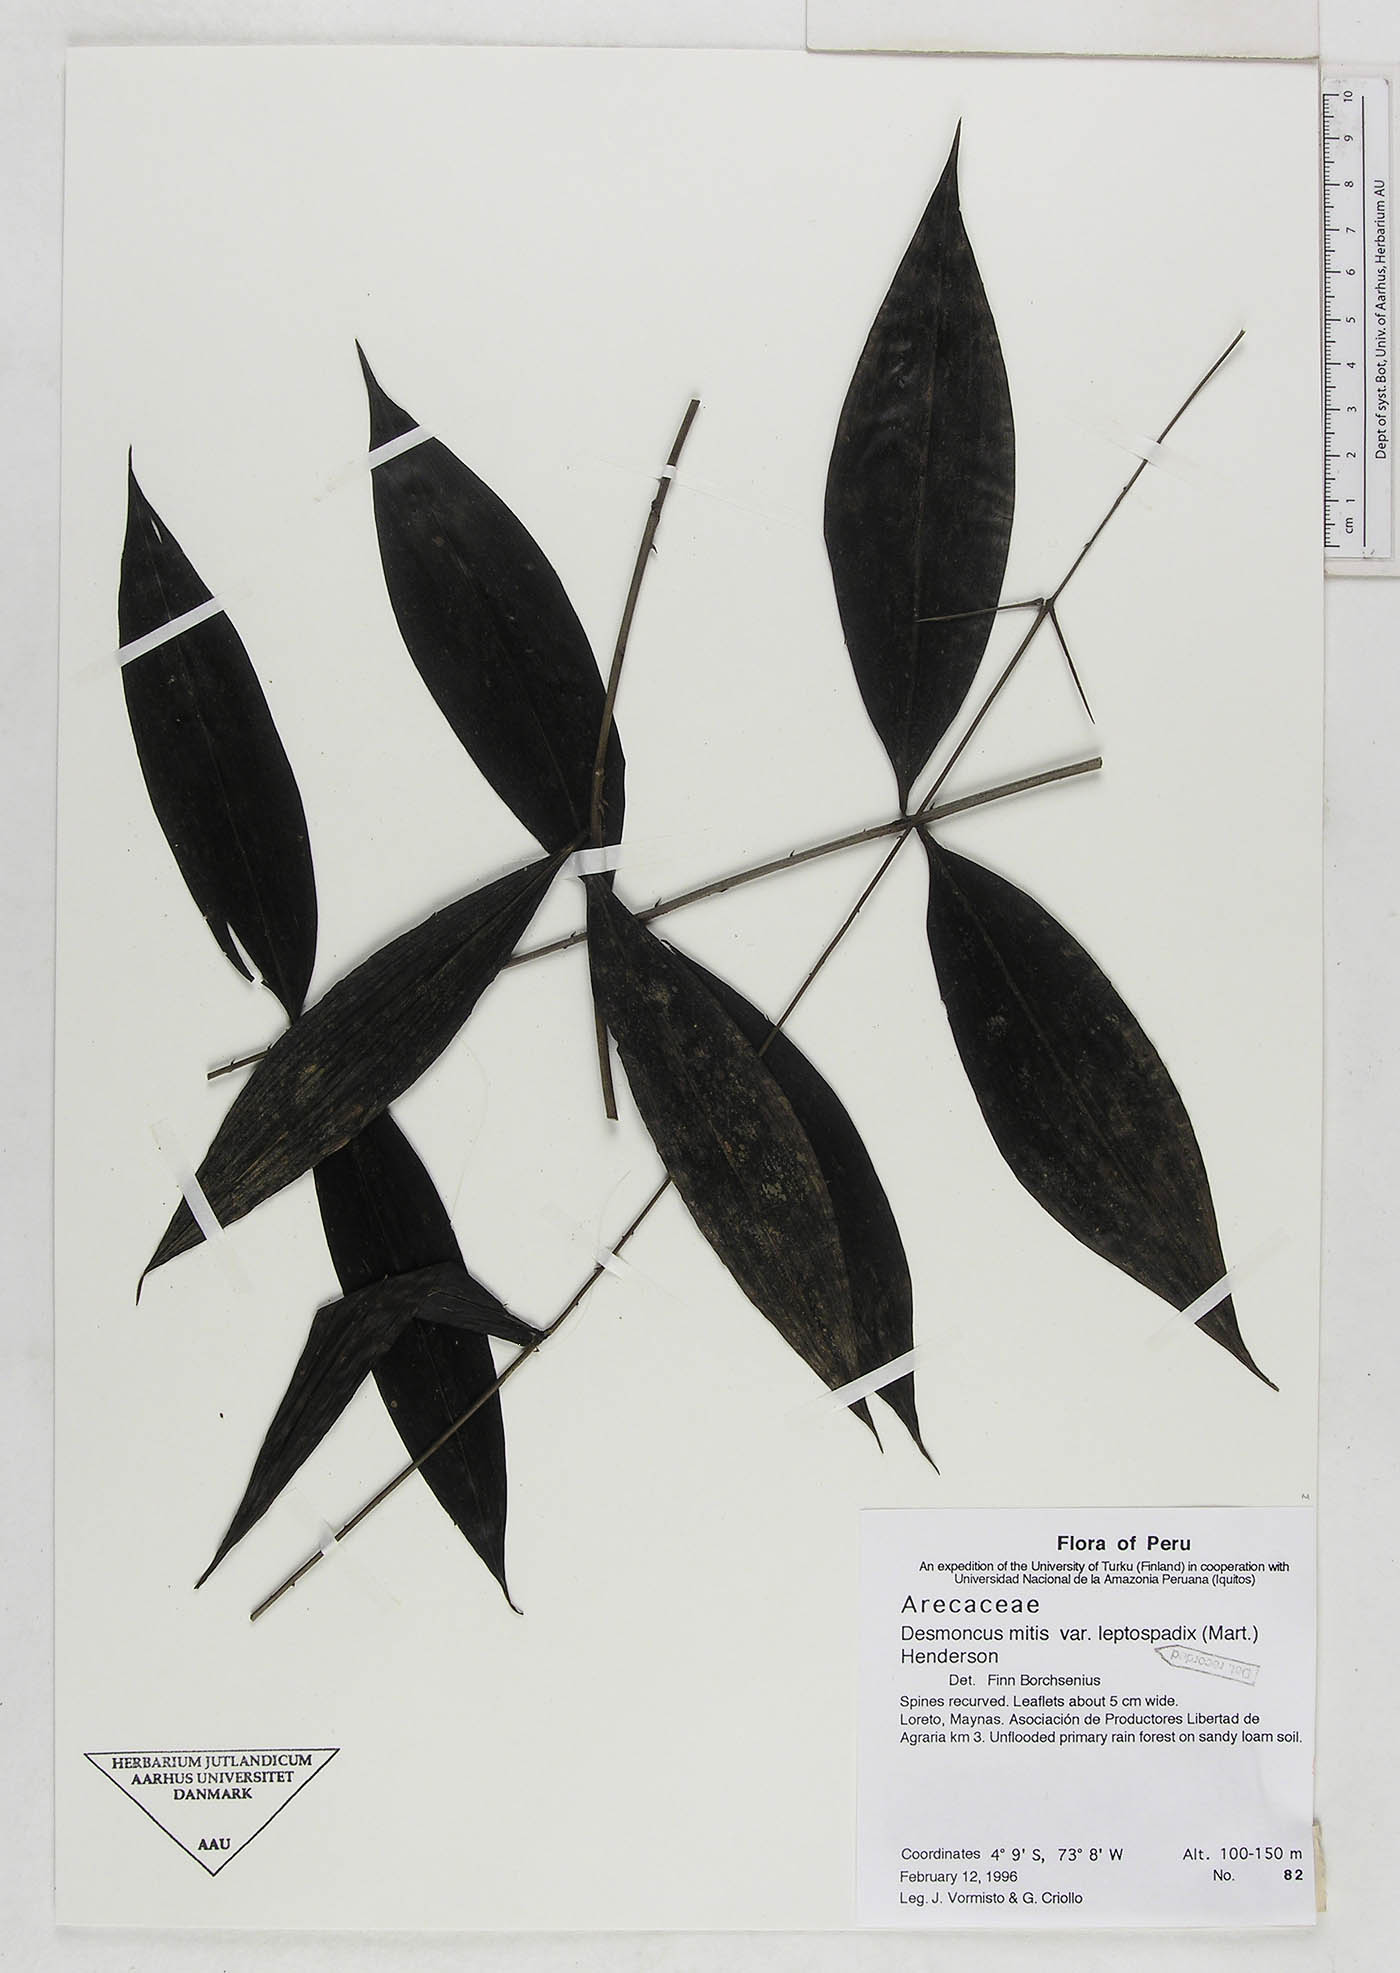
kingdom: Plantae
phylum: Tracheophyta
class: Liliopsida
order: Arecales
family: Arecaceae
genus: Desmoncus
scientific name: Desmoncus mitis
